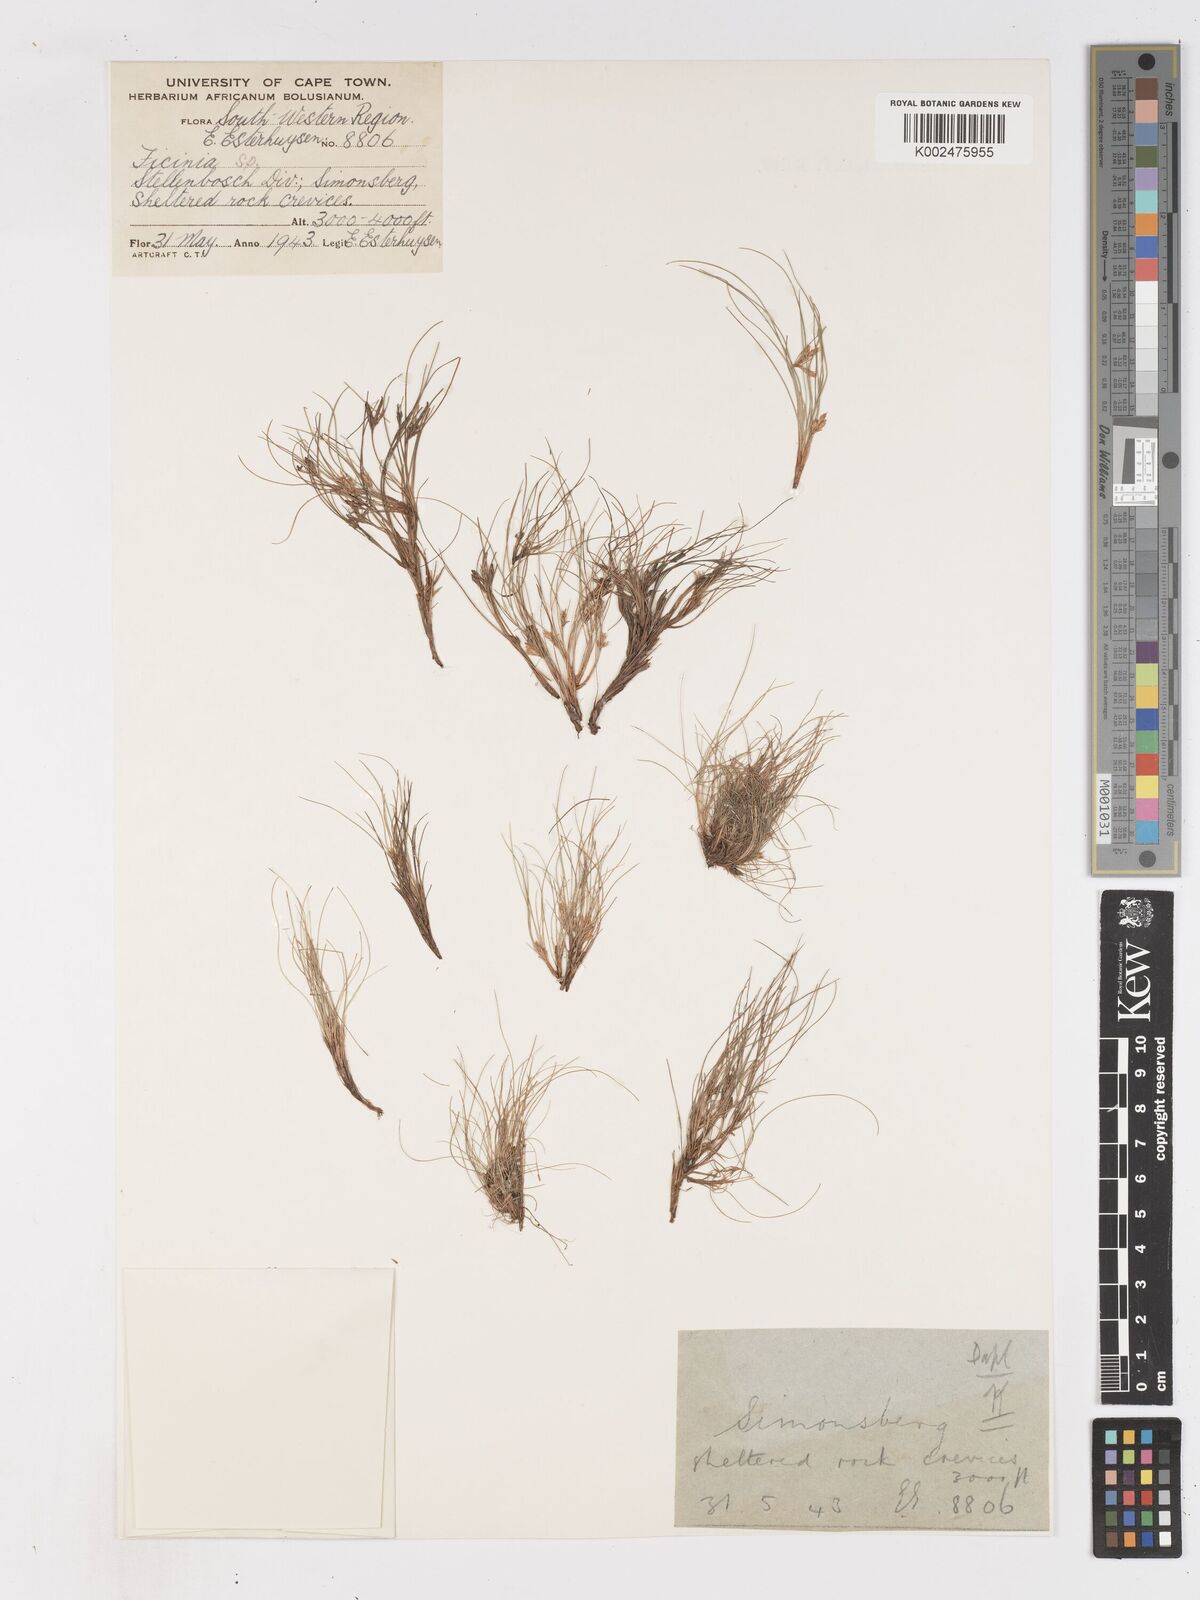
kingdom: Plantae
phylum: Tracheophyta
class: Liliopsida
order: Poales
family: Cyperaceae
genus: Ficinia
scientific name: Ficinia esterhuyseniae
